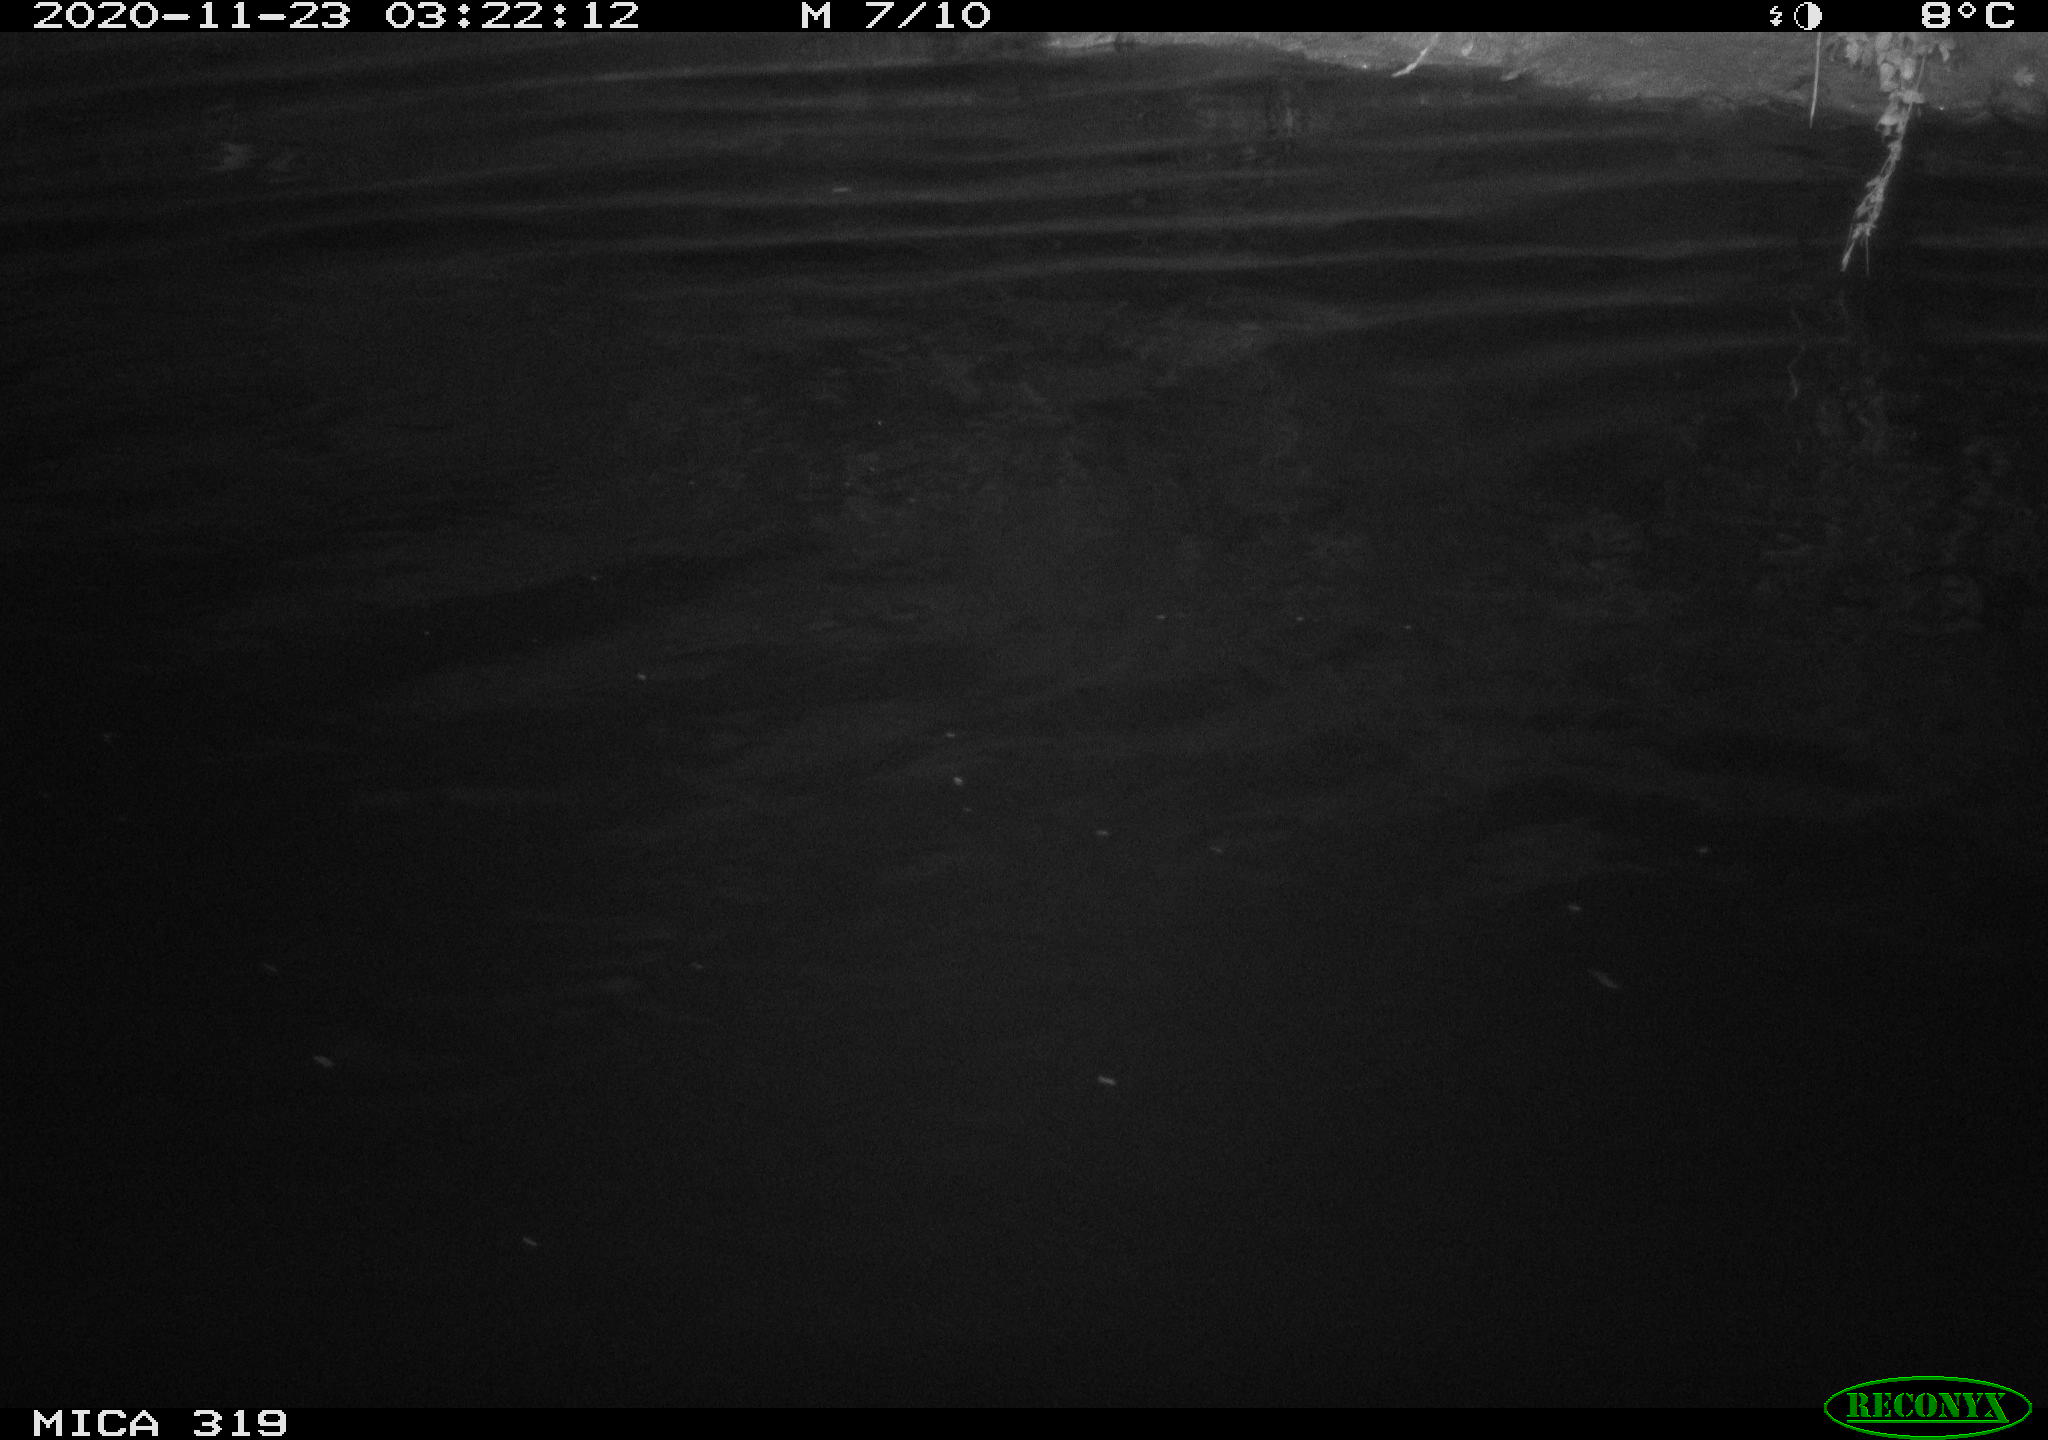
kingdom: Animalia
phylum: Chordata
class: Aves
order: Anseriformes
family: Anatidae
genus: Anas
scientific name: Anas platyrhynchos
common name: Mallard
